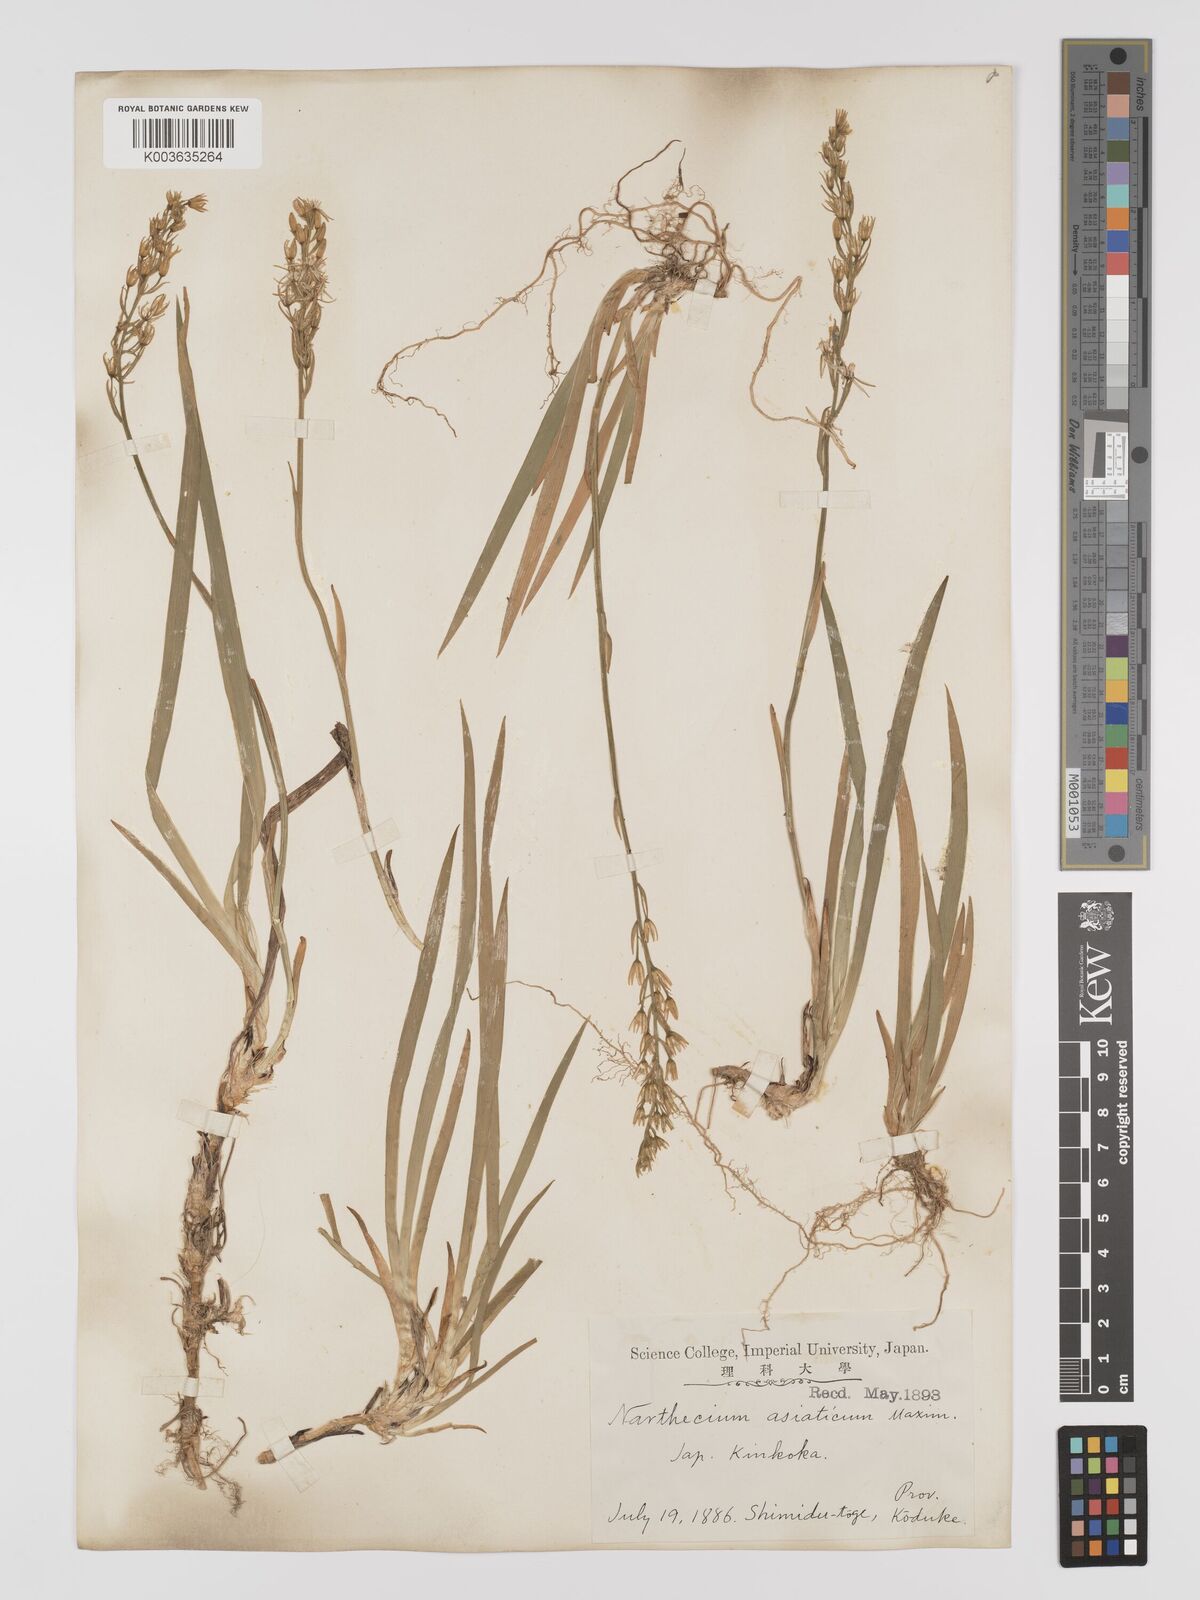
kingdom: Plantae
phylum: Tracheophyta
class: Liliopsida
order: Dioscoreales
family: Nartheciaceae
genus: Narthecium
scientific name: Narthecium asiaticum
